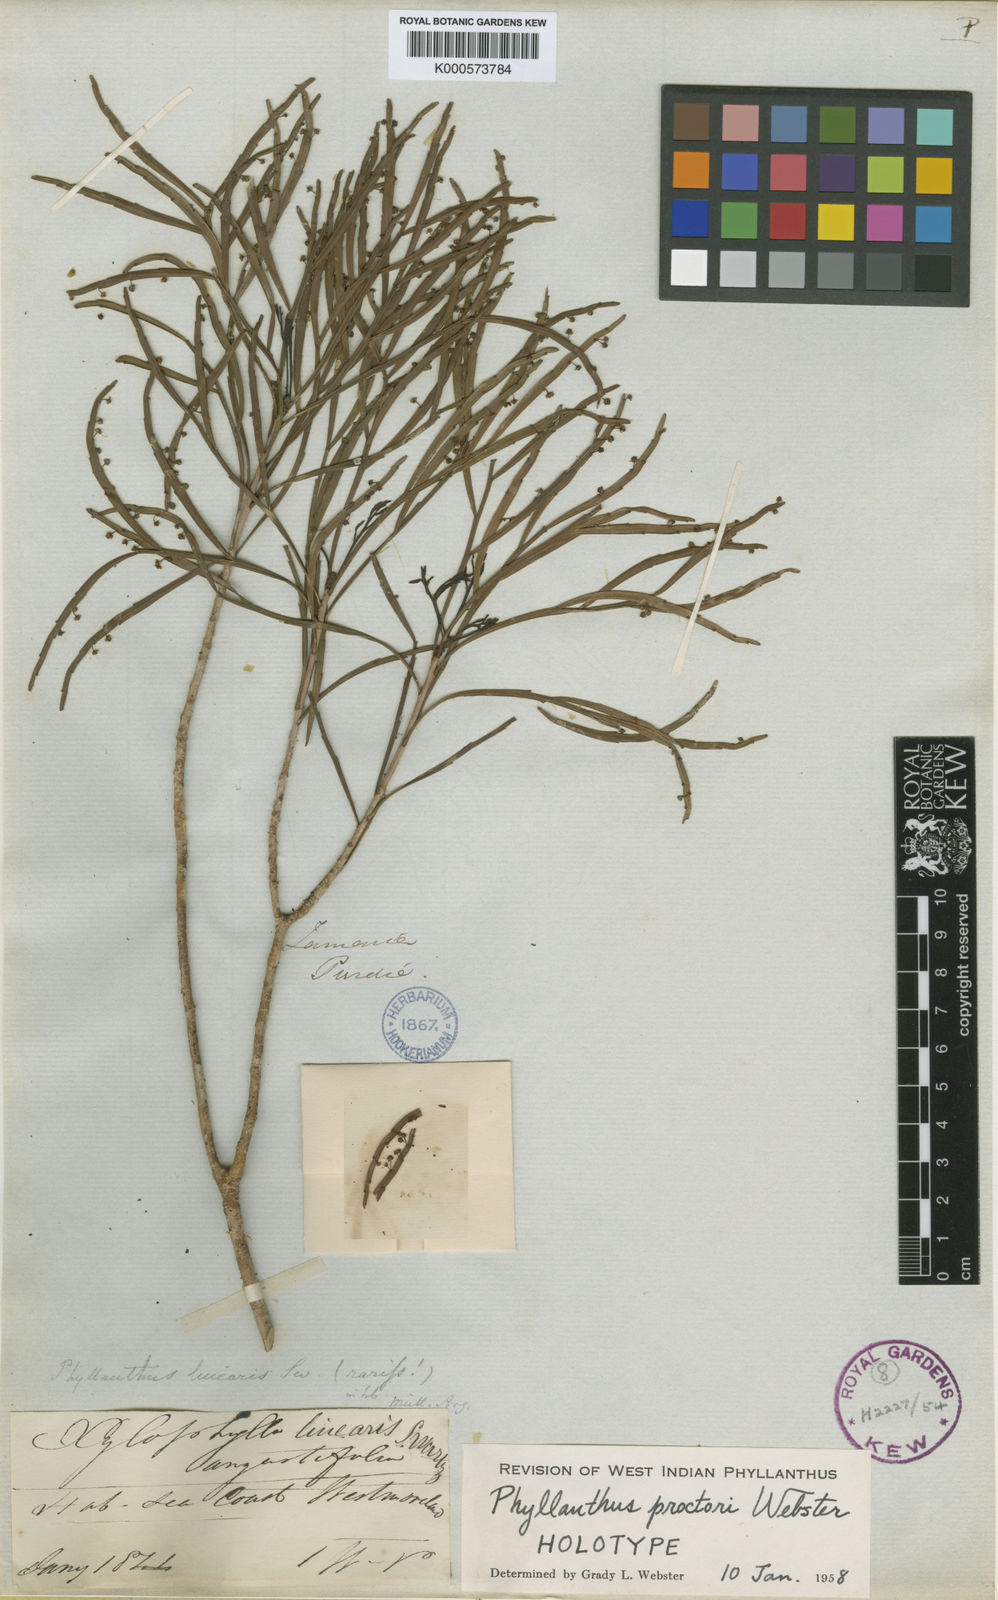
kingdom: Plantae
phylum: Tracheophyta
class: Magnoliopsida
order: Malpighiales
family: Phyllanthaceae
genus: Phyllanthus
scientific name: Phyllanthus proctoris
